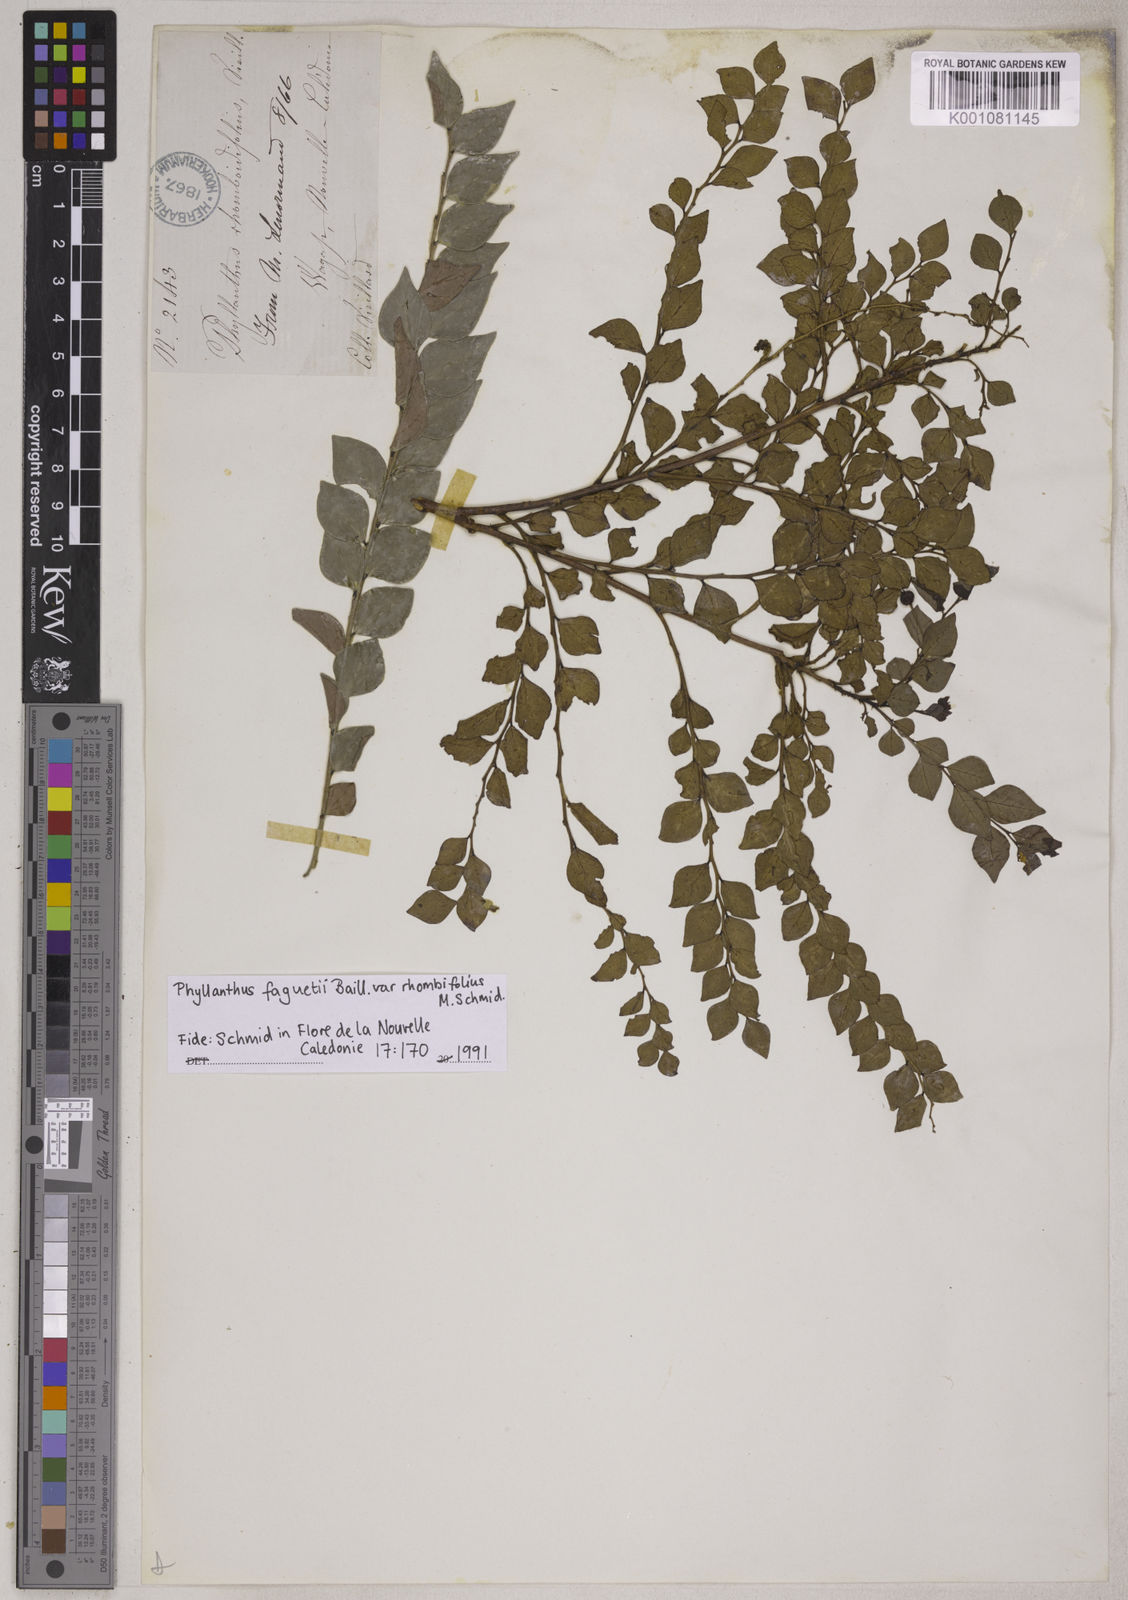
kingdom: Plantae
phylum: Tracheophyta
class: Magnoliopsida
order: Malpighiales
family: Phyllanthaceae
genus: Phyllanthus
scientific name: Phyllanthus faguetii
